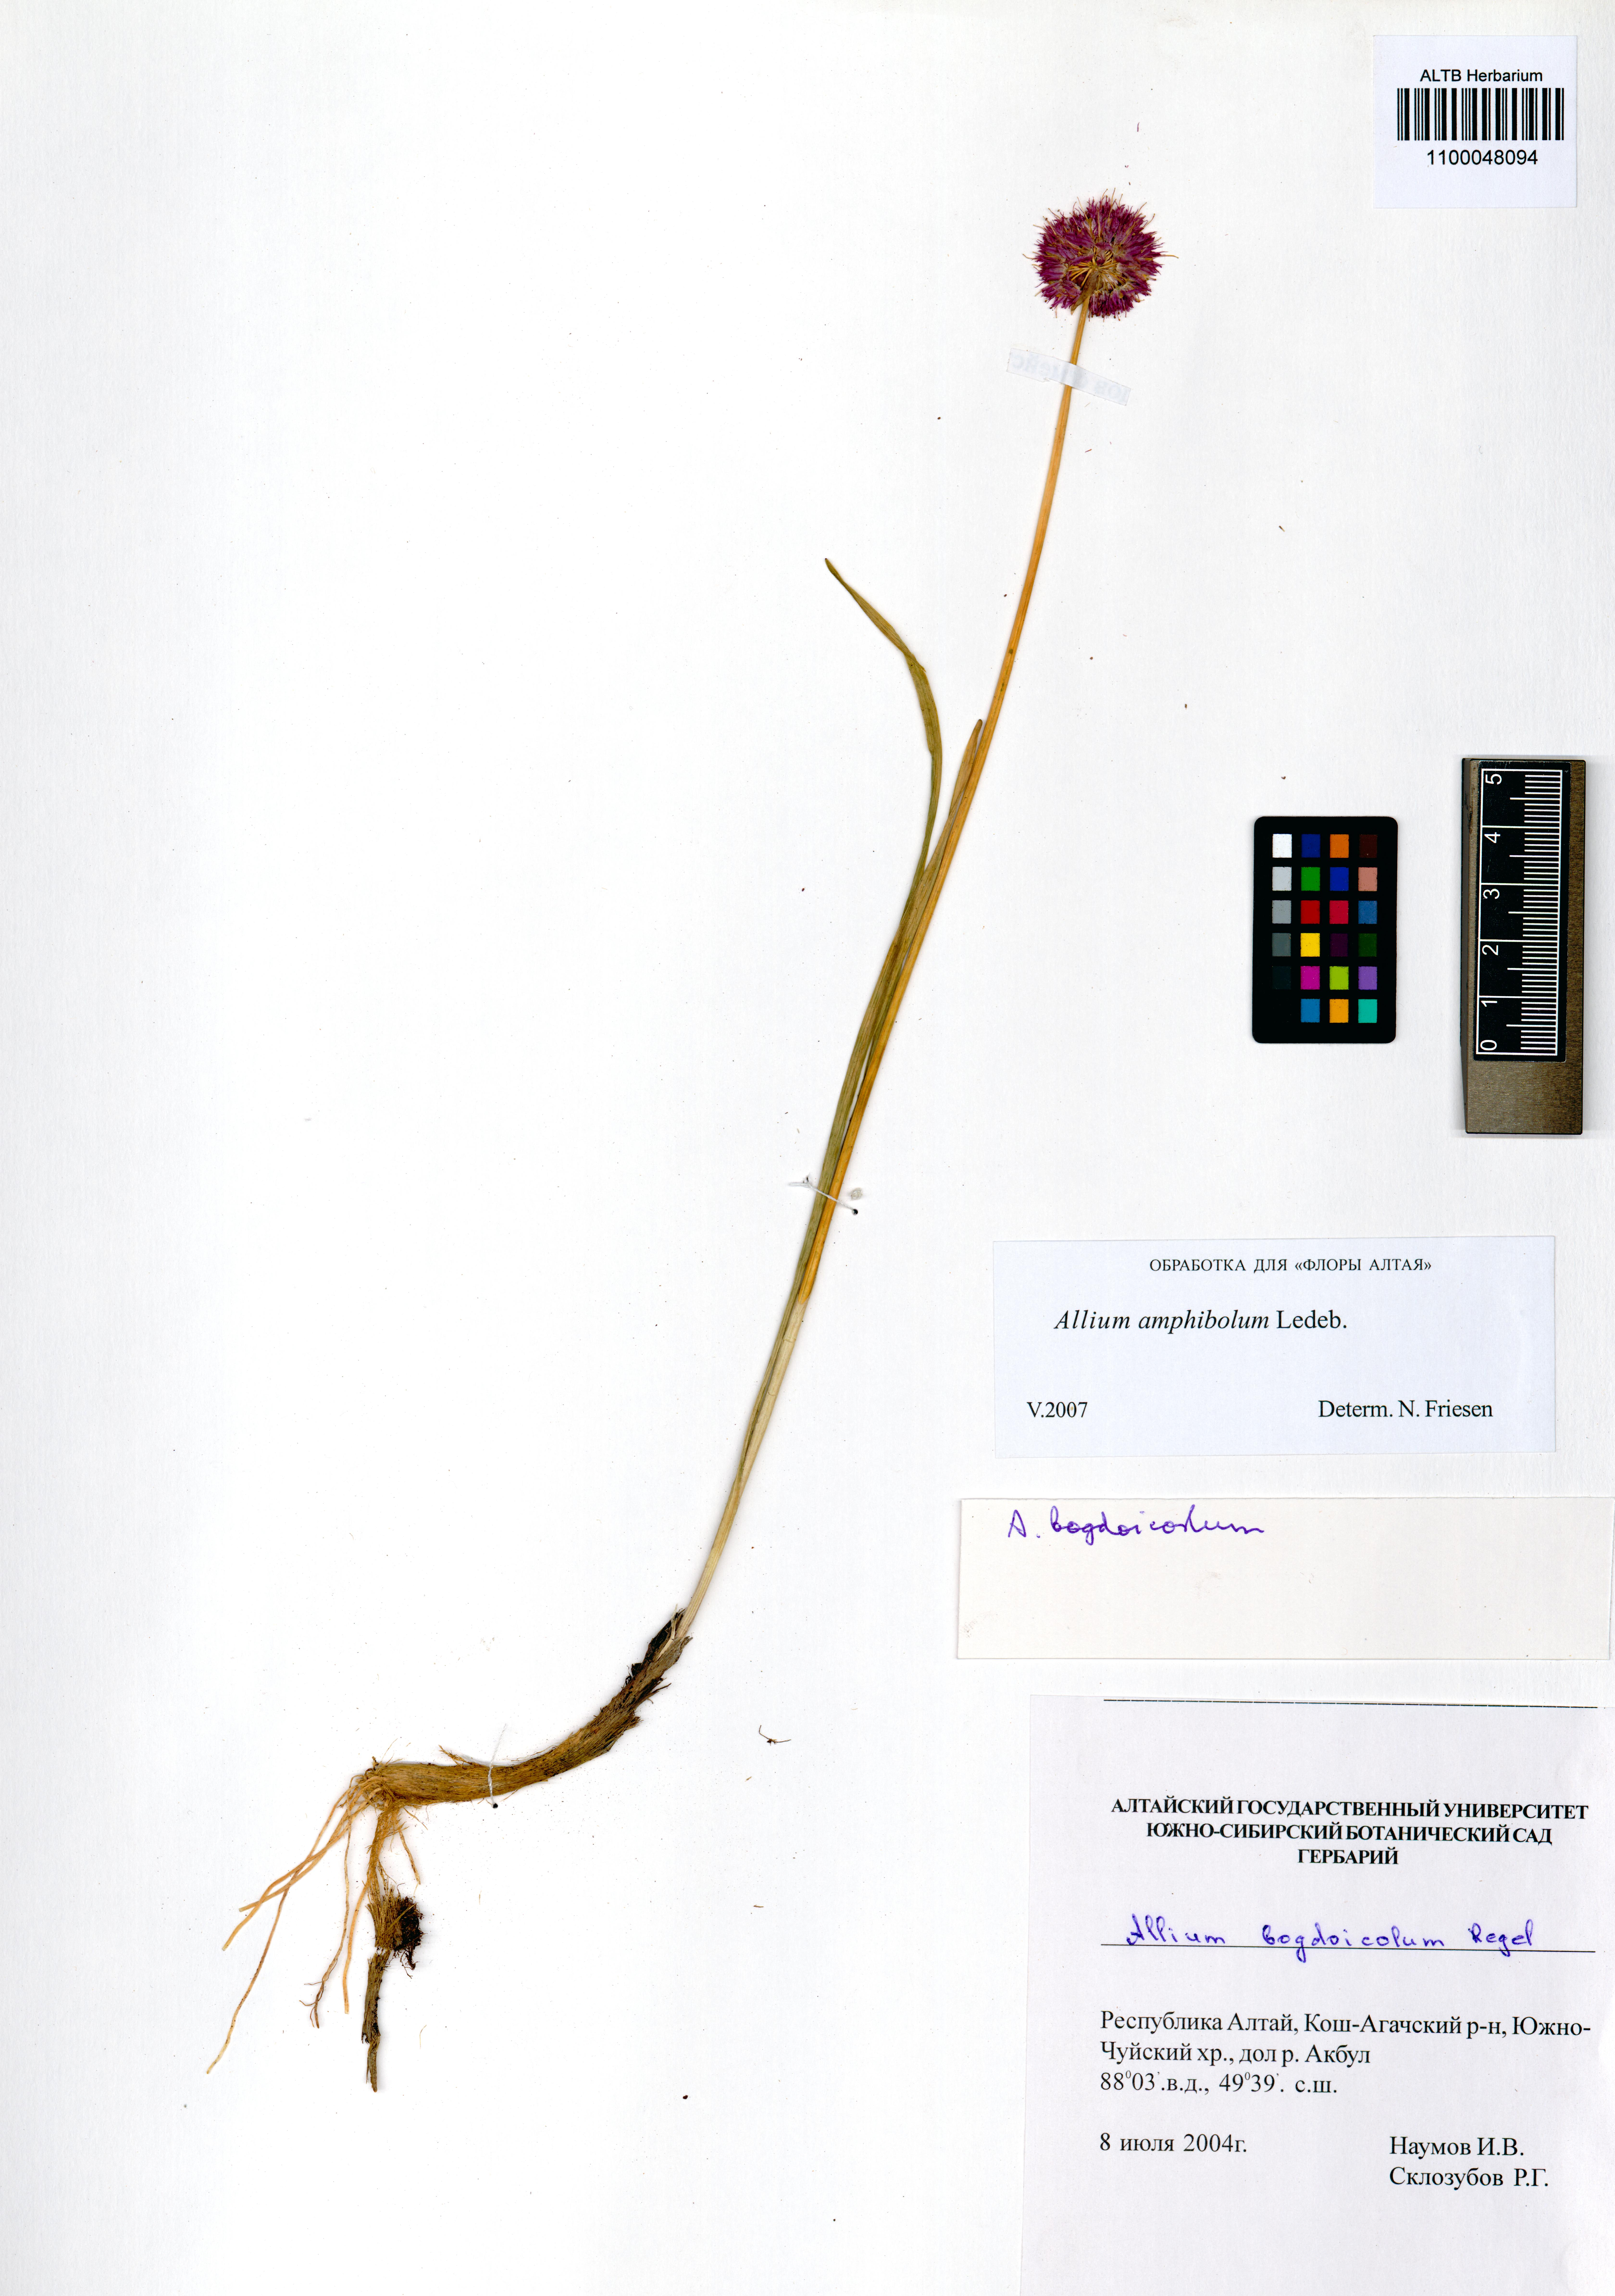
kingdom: Plantae
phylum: Tracheophyta
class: Liliopsida
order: Asparagales
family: Amaryllidaceae
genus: Allium
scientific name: Allium amphibolum
